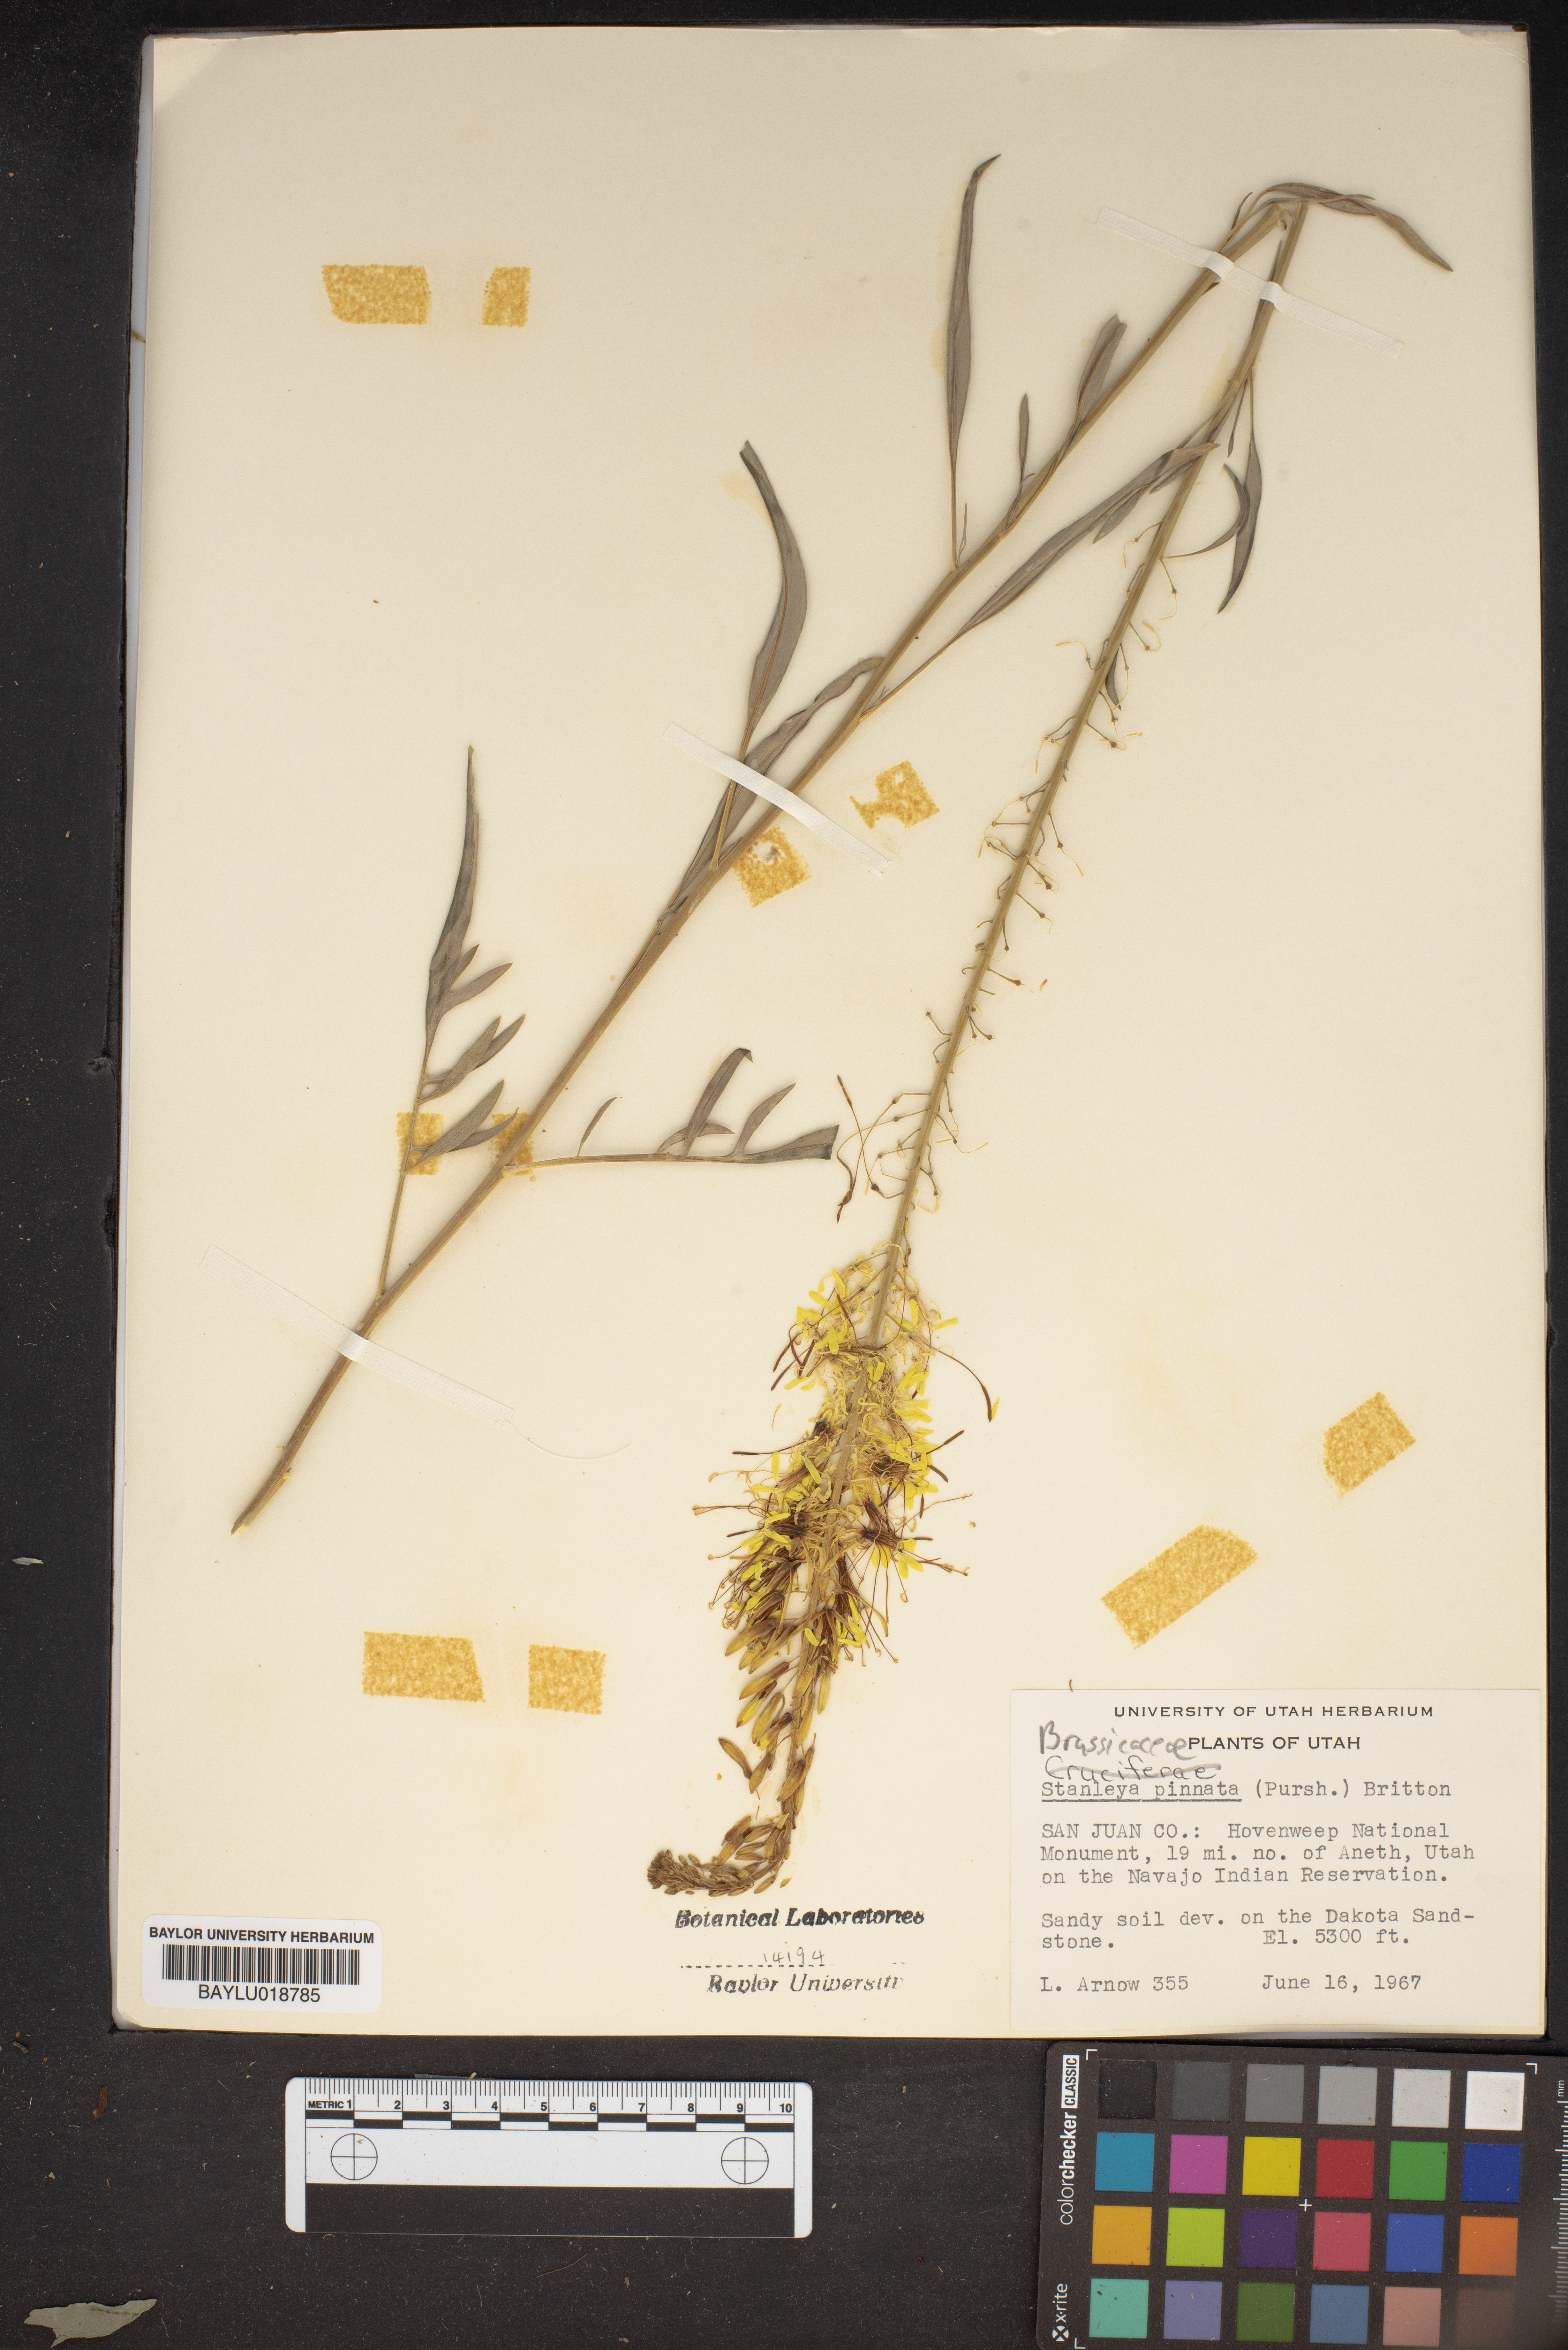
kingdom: Plantae
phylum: Tracheophyta
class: Magnoliopsida
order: Brassicales
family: Brassicaceae
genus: Stanleya
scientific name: Stanleya pinnata
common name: Prince's-plume
